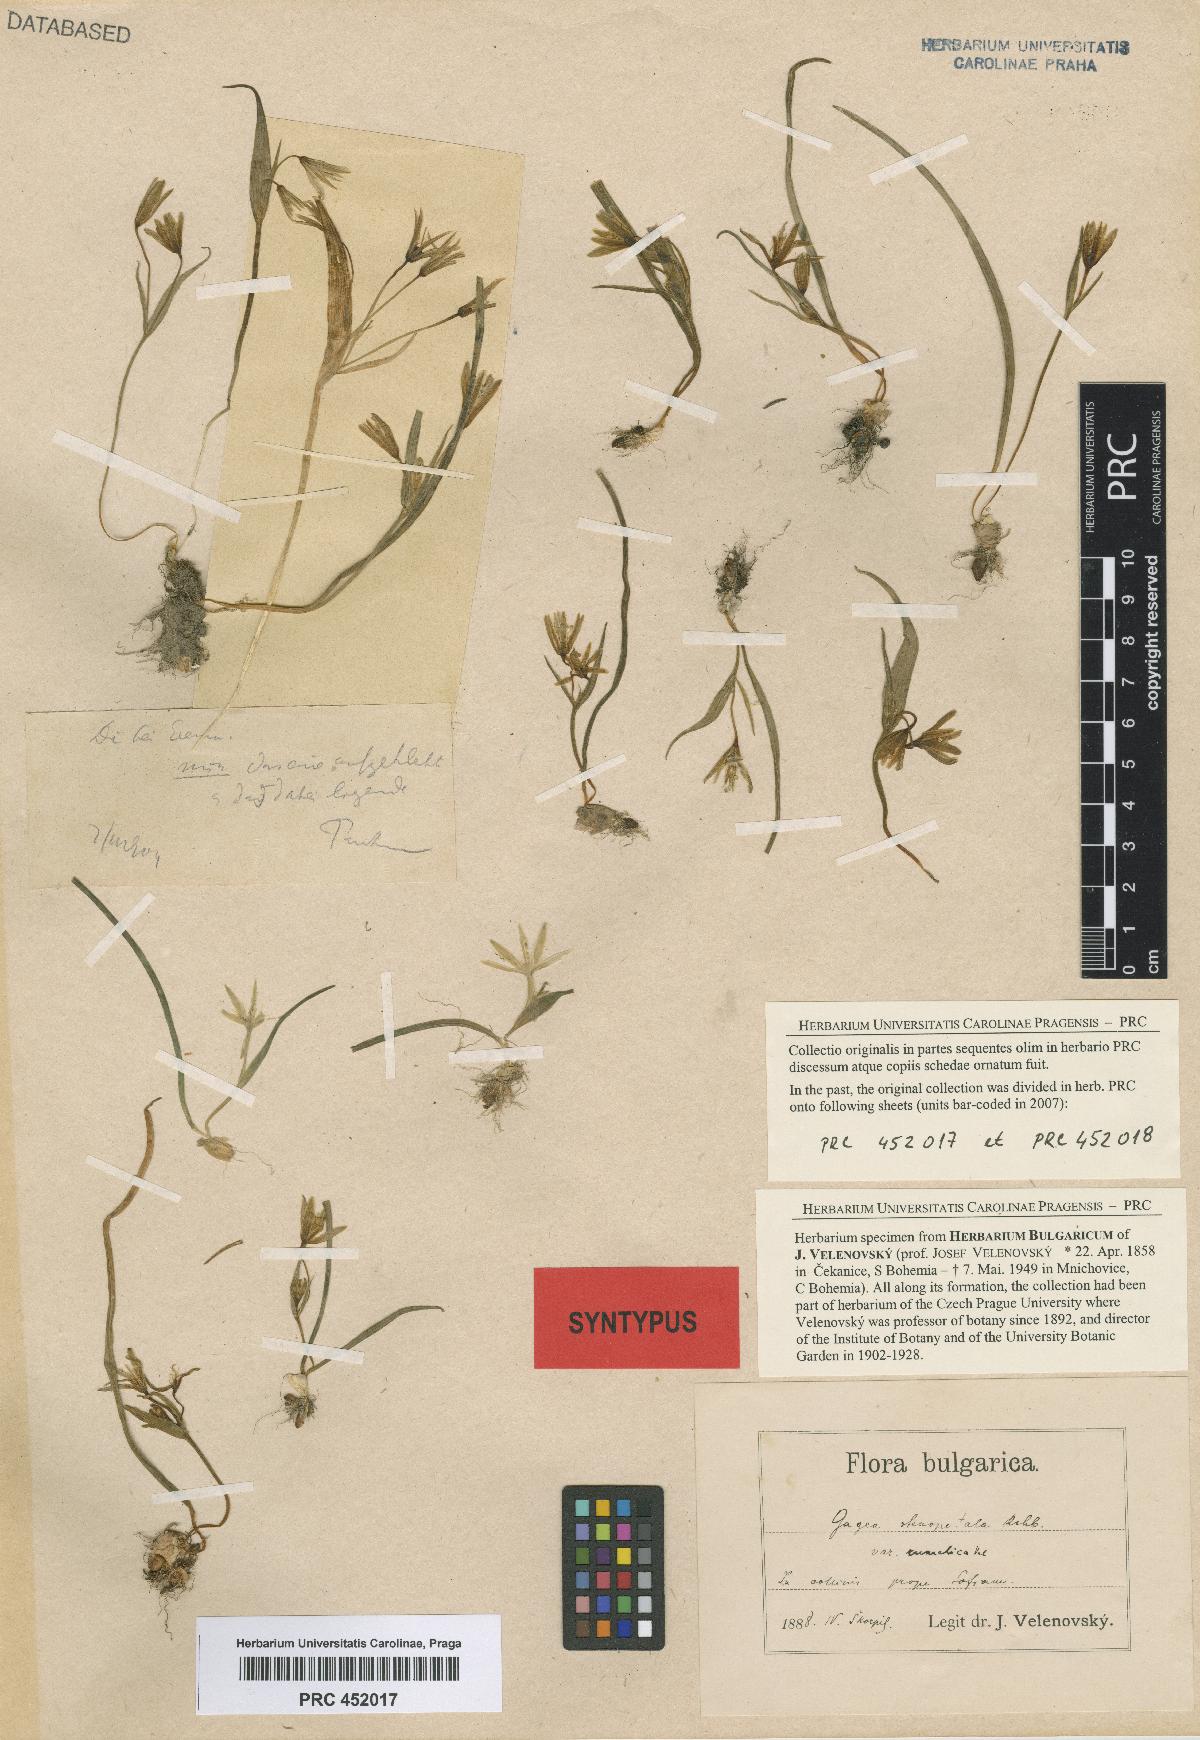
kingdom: Plantae
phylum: Tracheophyta
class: Liliopsida
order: Liliales
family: Liliaceae
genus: Gagea
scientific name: Gagea pratensis
